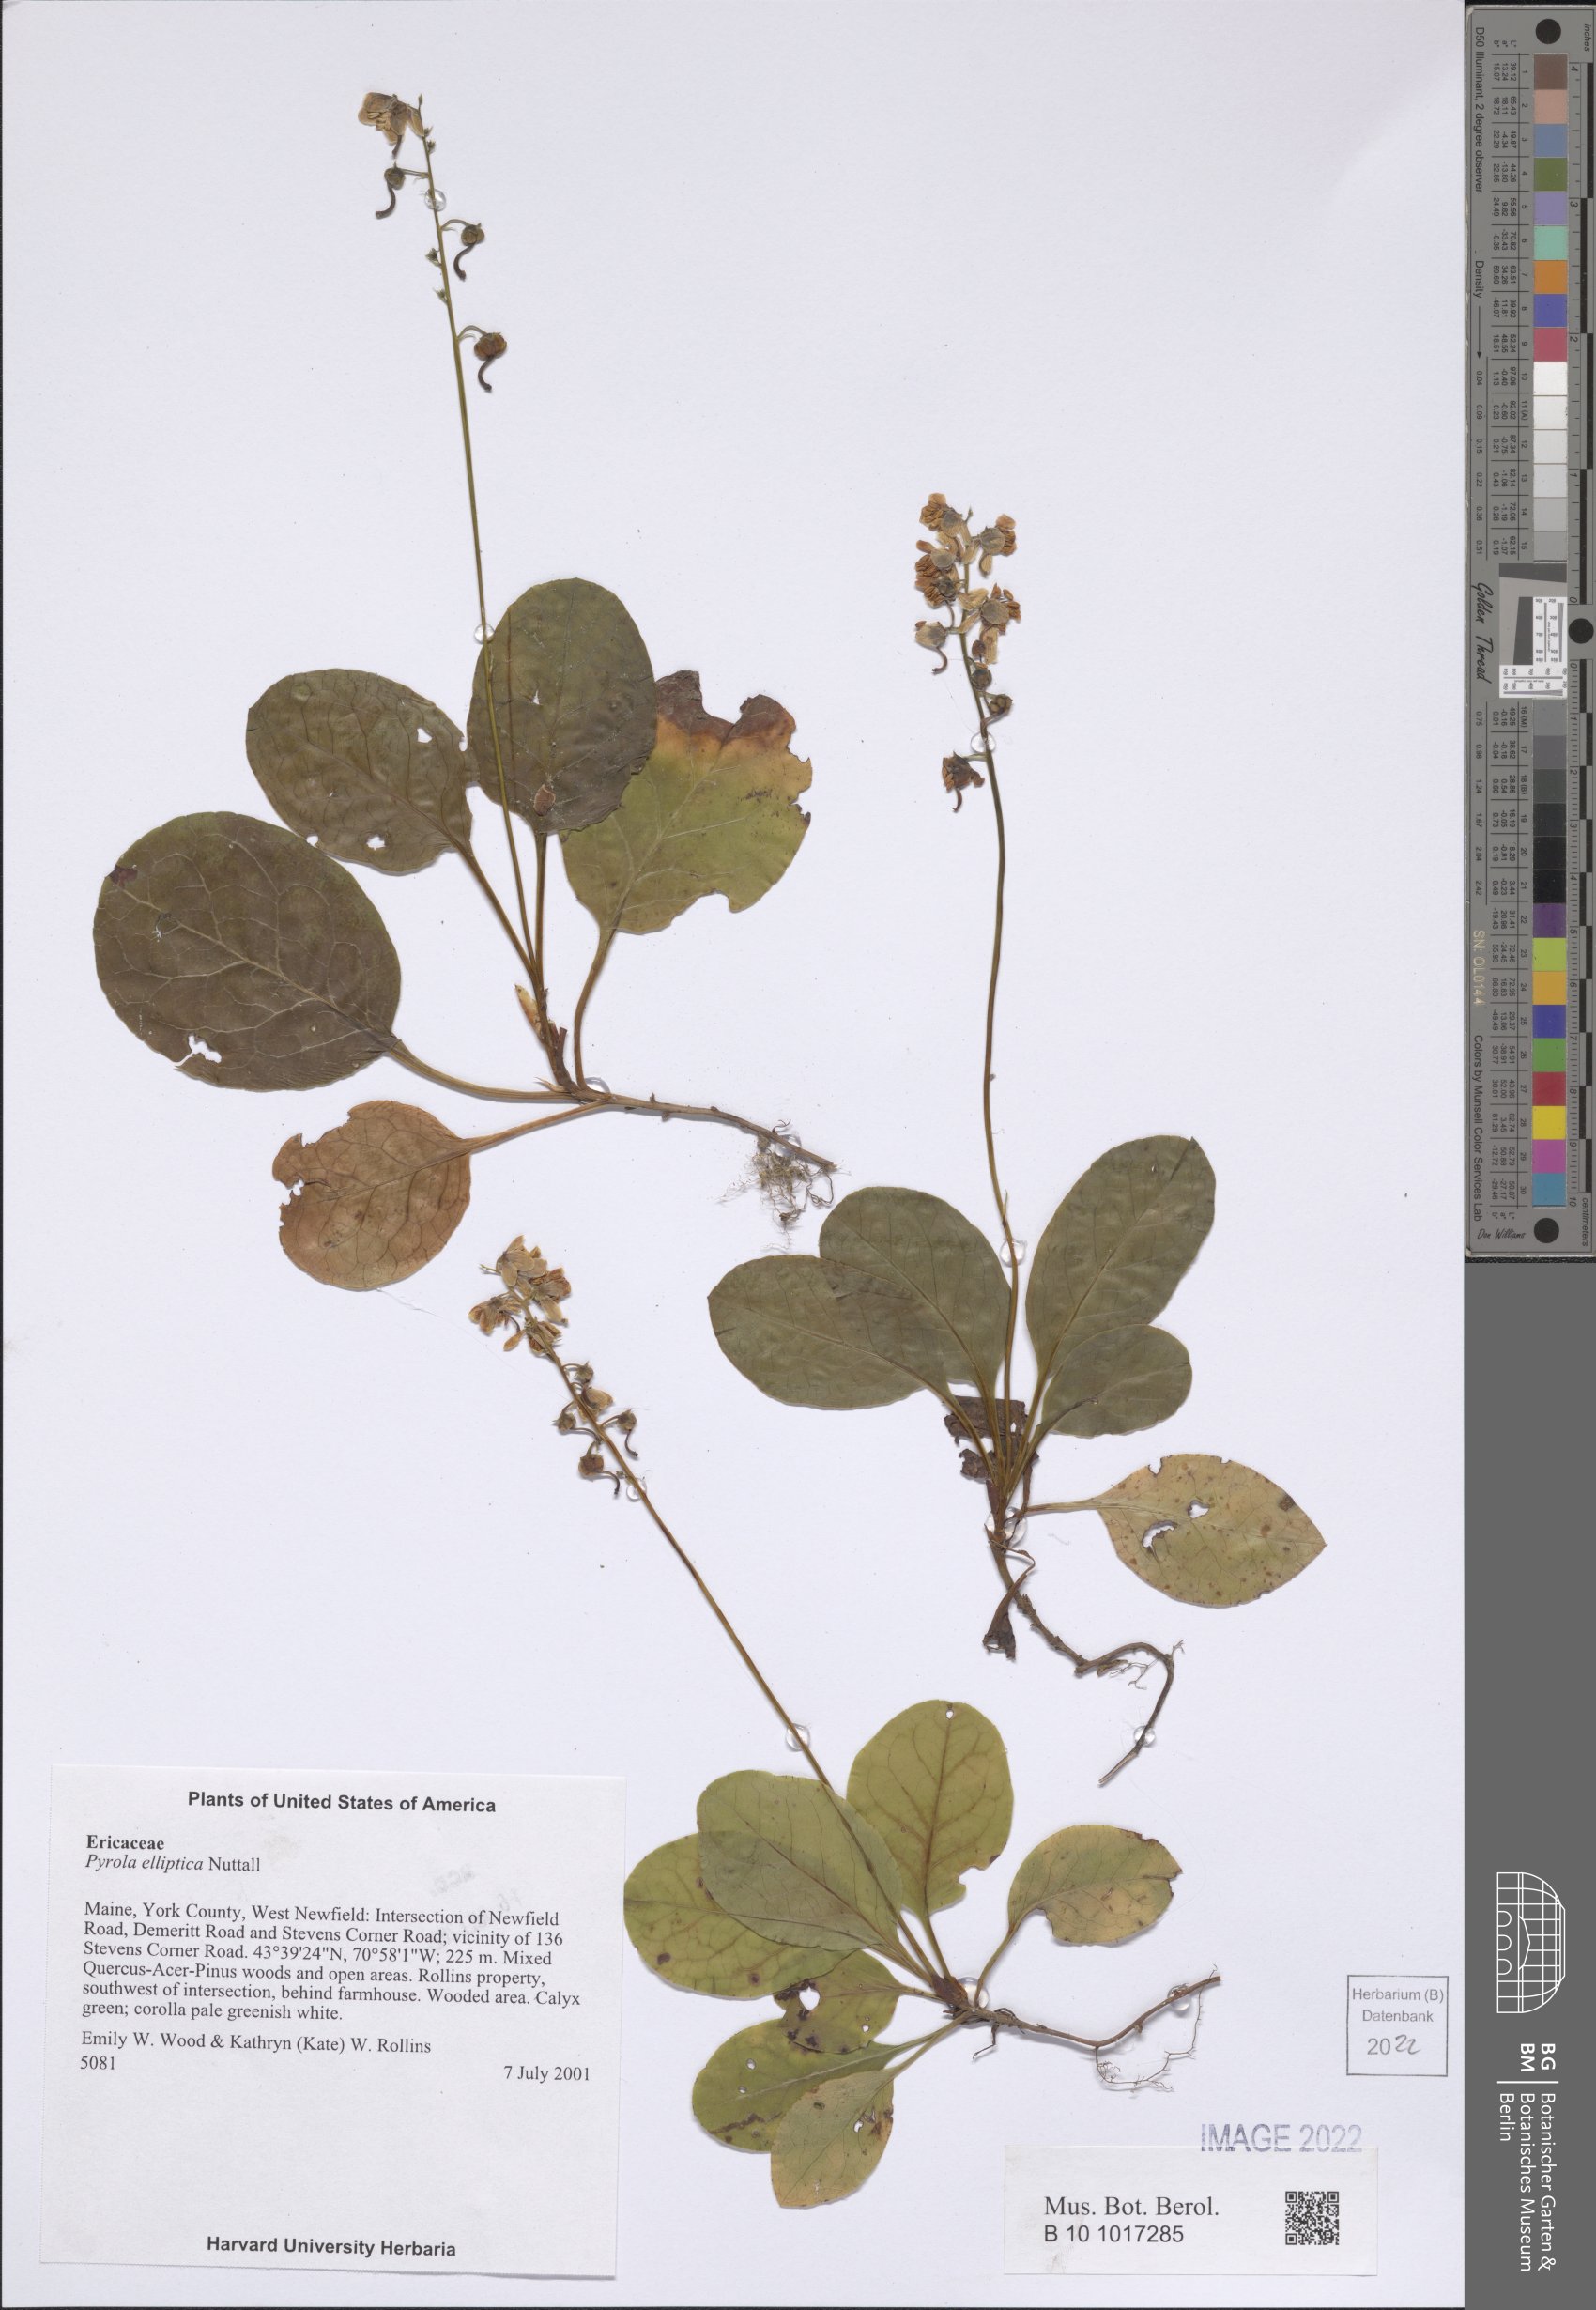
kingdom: Plantae
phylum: Tracheophyta
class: Magnoliopsida
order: Ericales
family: Ericaceae
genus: Pyrola
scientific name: Pyrola elliptica
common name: Shinleaf
